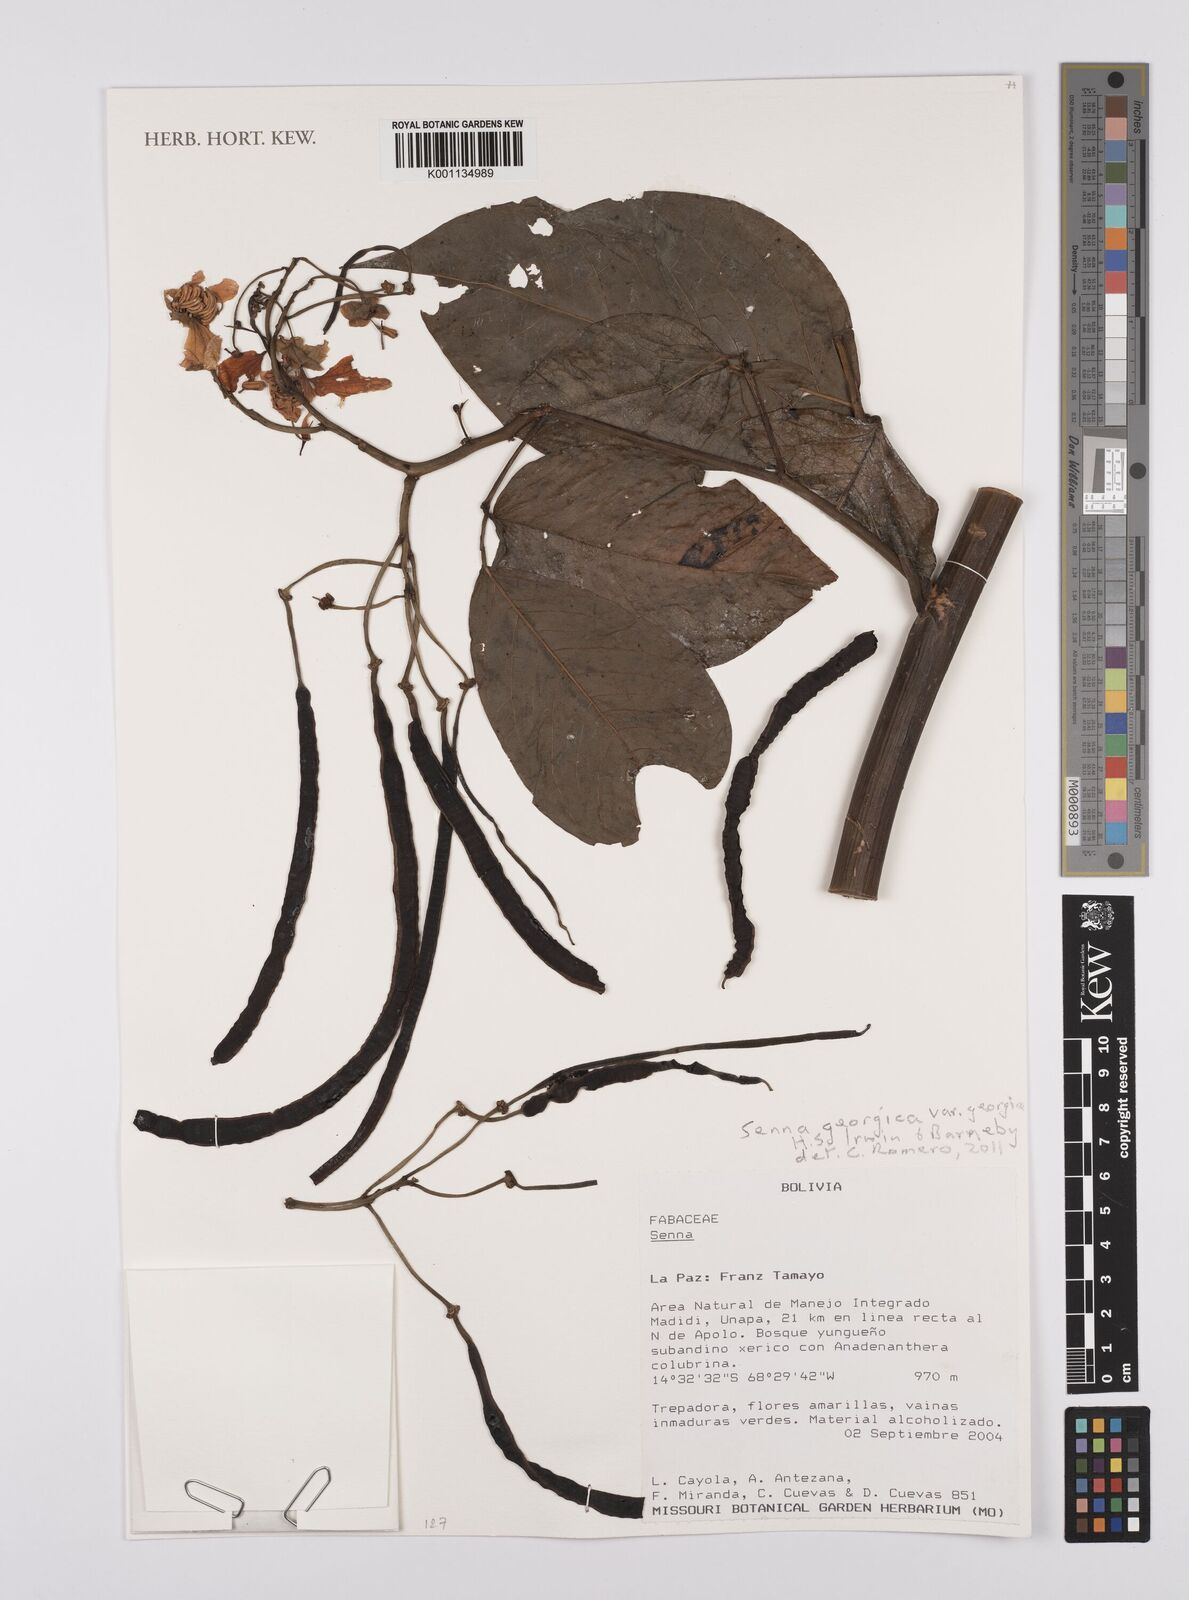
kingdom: Plantae
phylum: Tracheophyta
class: Magnoliopsida
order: Fabales
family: Fabaceae
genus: Senna
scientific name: Senna georgica
